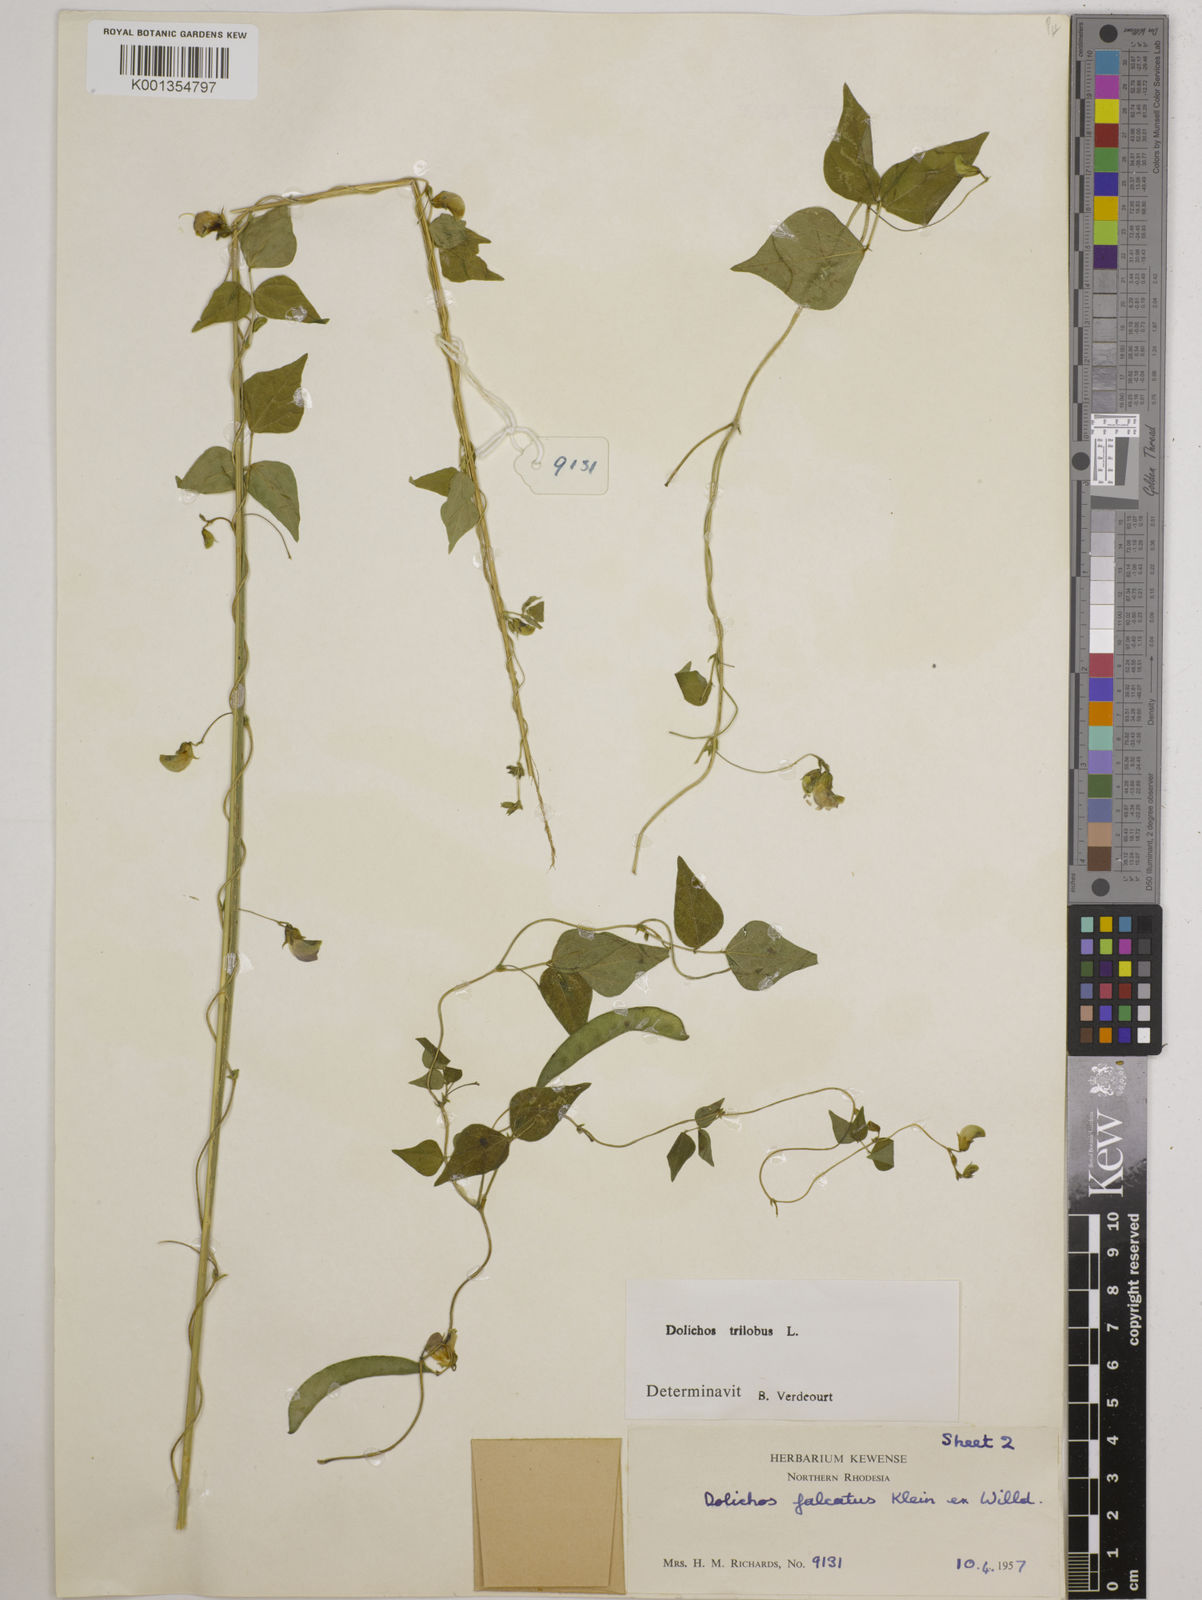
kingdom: Plantae
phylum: Tracheophyta
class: Magnoliopsida
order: Fabales
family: Fabaceae
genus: Dolichos
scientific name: Dolichos
